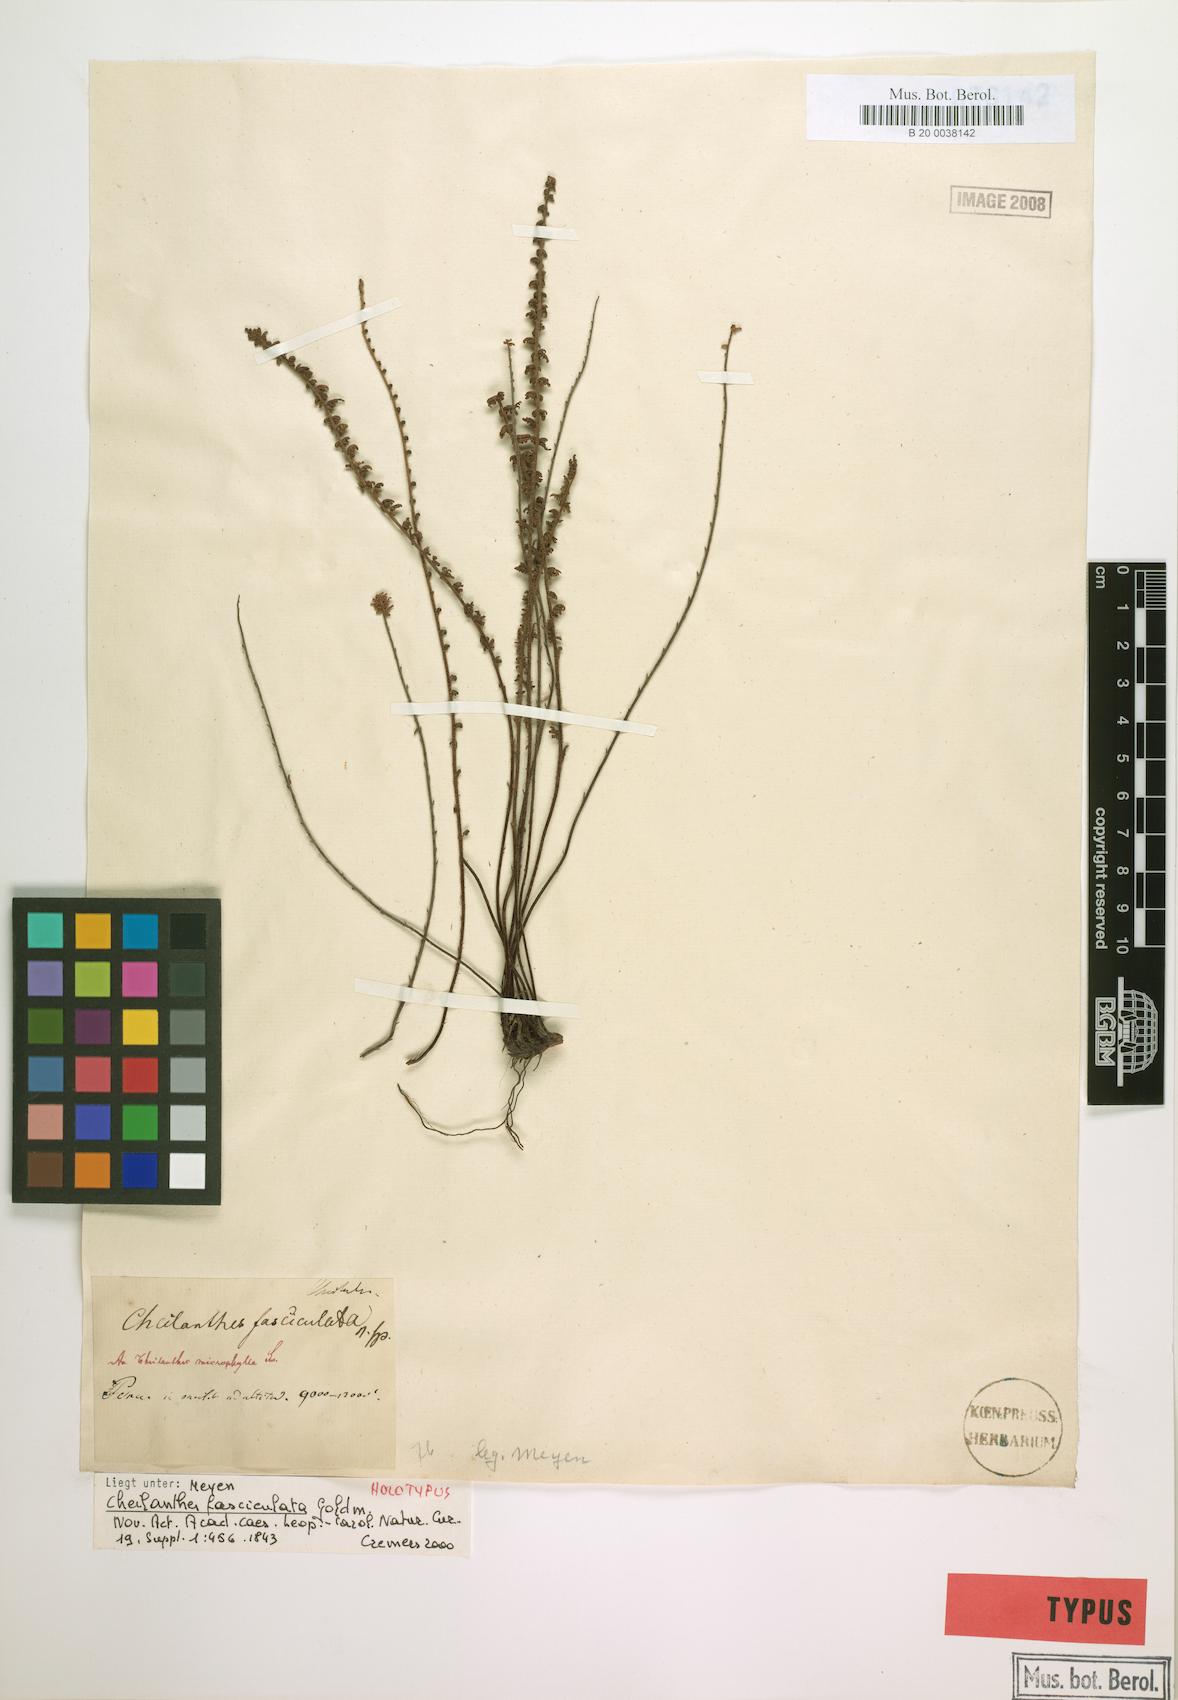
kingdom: Plantae
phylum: Tracheophyta
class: Polypodiopsida
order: Polypodiales
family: Pteridaceae
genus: Cheilanthes
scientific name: Cheilanthes pruinata
